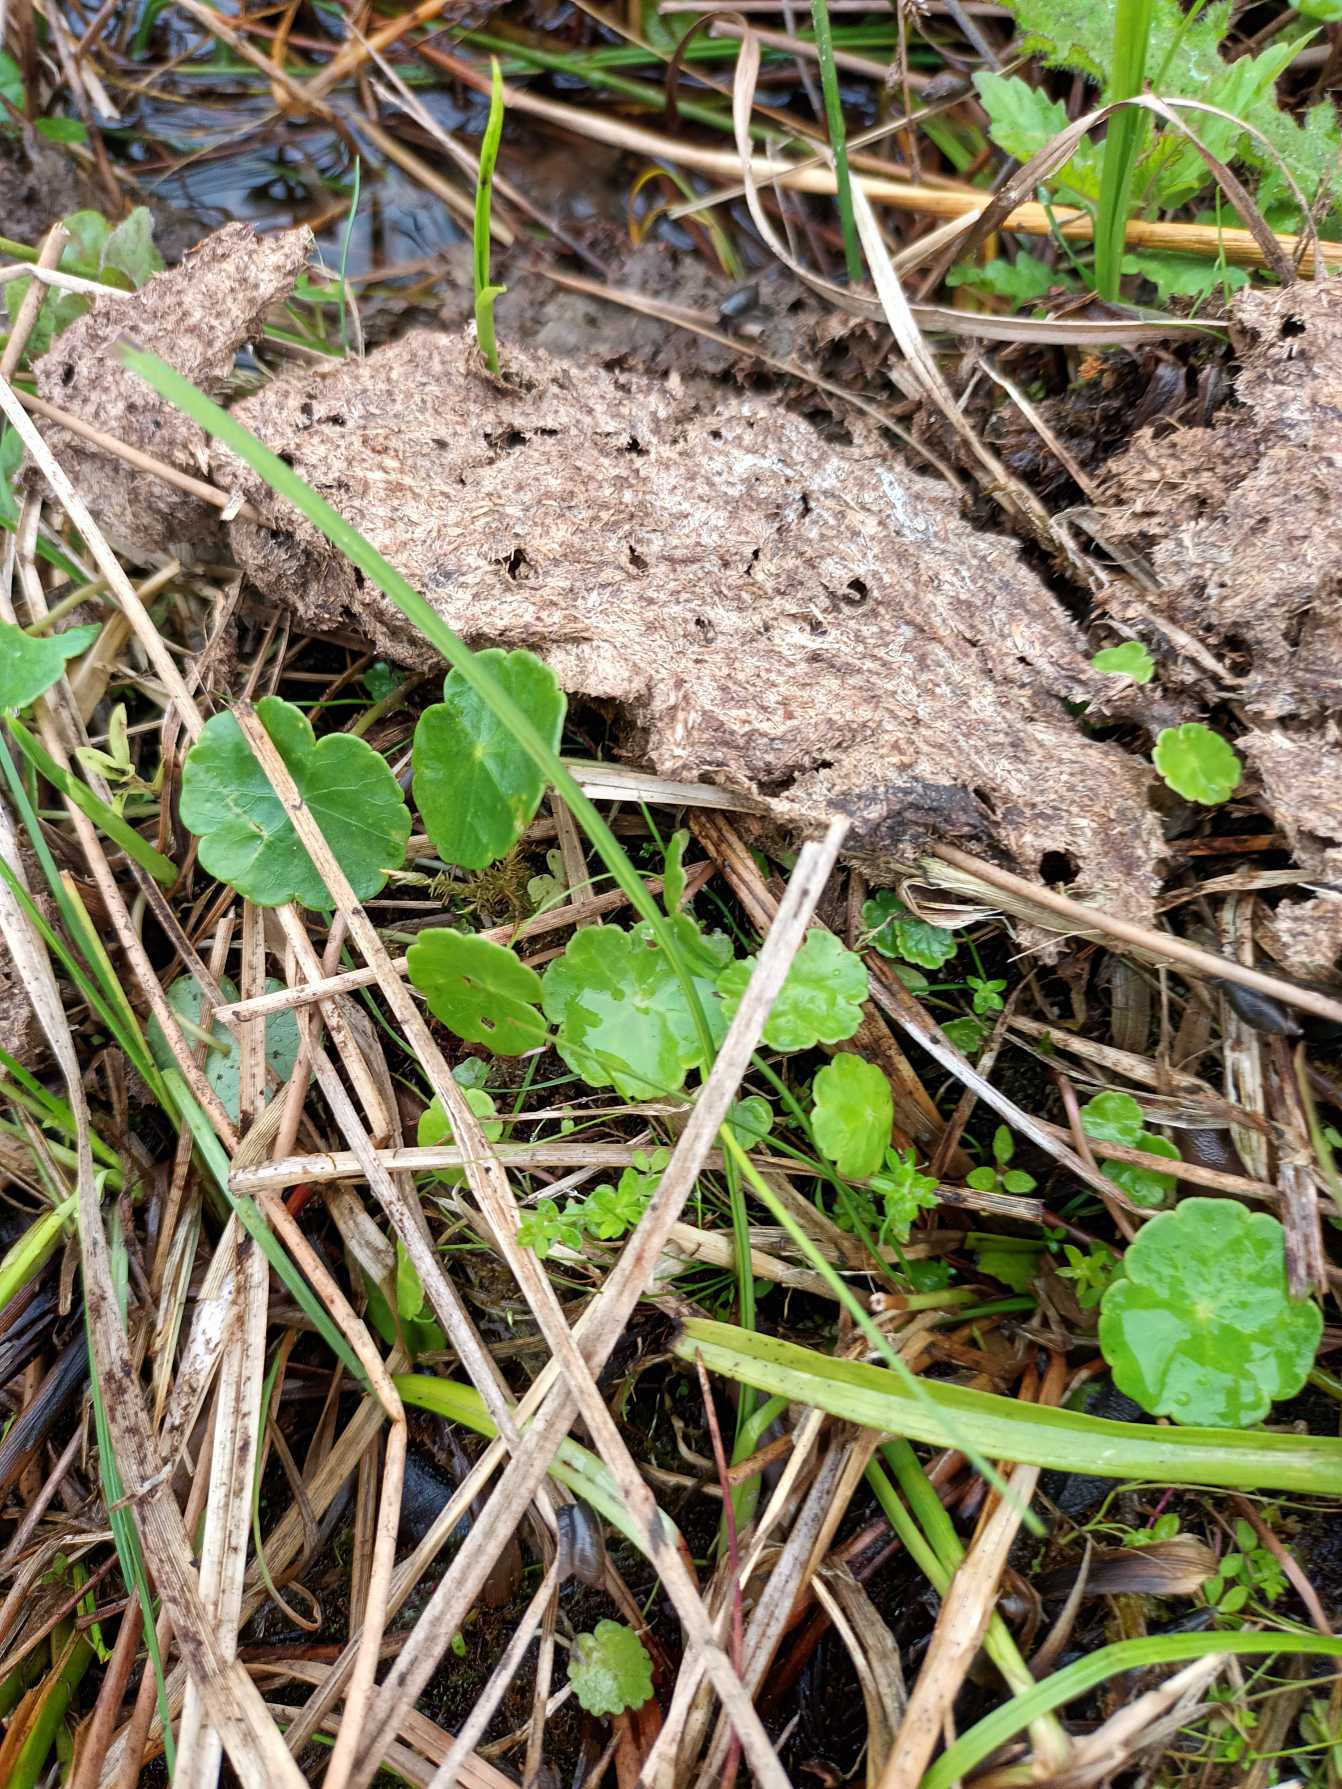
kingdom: Plantae
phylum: Tracheophyta
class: Magnoliopsida
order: Apiales
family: Araliaceae
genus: Hydrocotyle
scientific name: Hydrocotyle vulgaris
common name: Vandnavle
